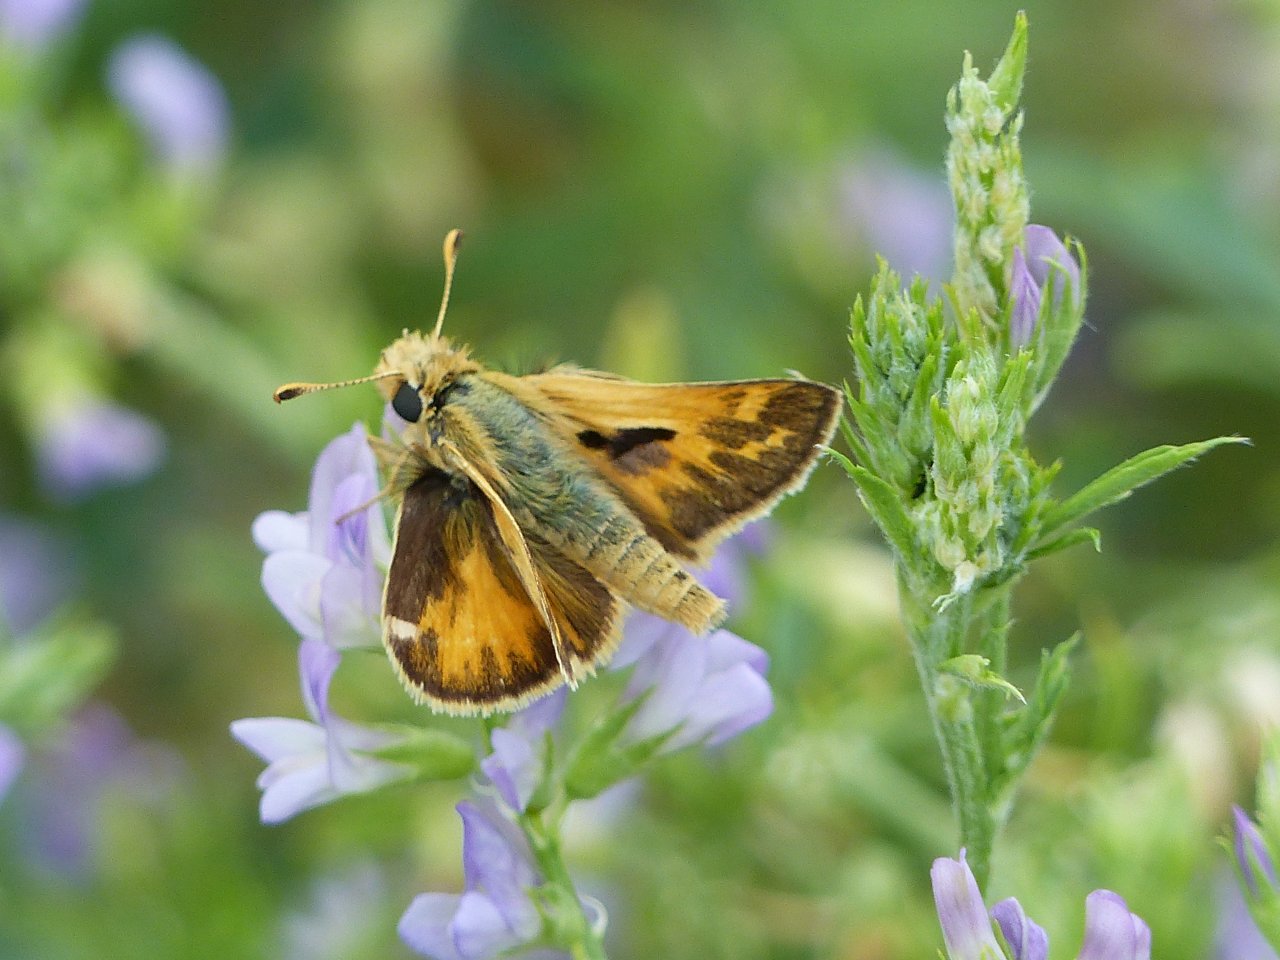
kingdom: Animalia
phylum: Arthropoda
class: Insecta
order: Lepidoptera
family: Hesperiidae
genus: Polites
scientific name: Polites sabuleti
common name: Sandhill Skipper
